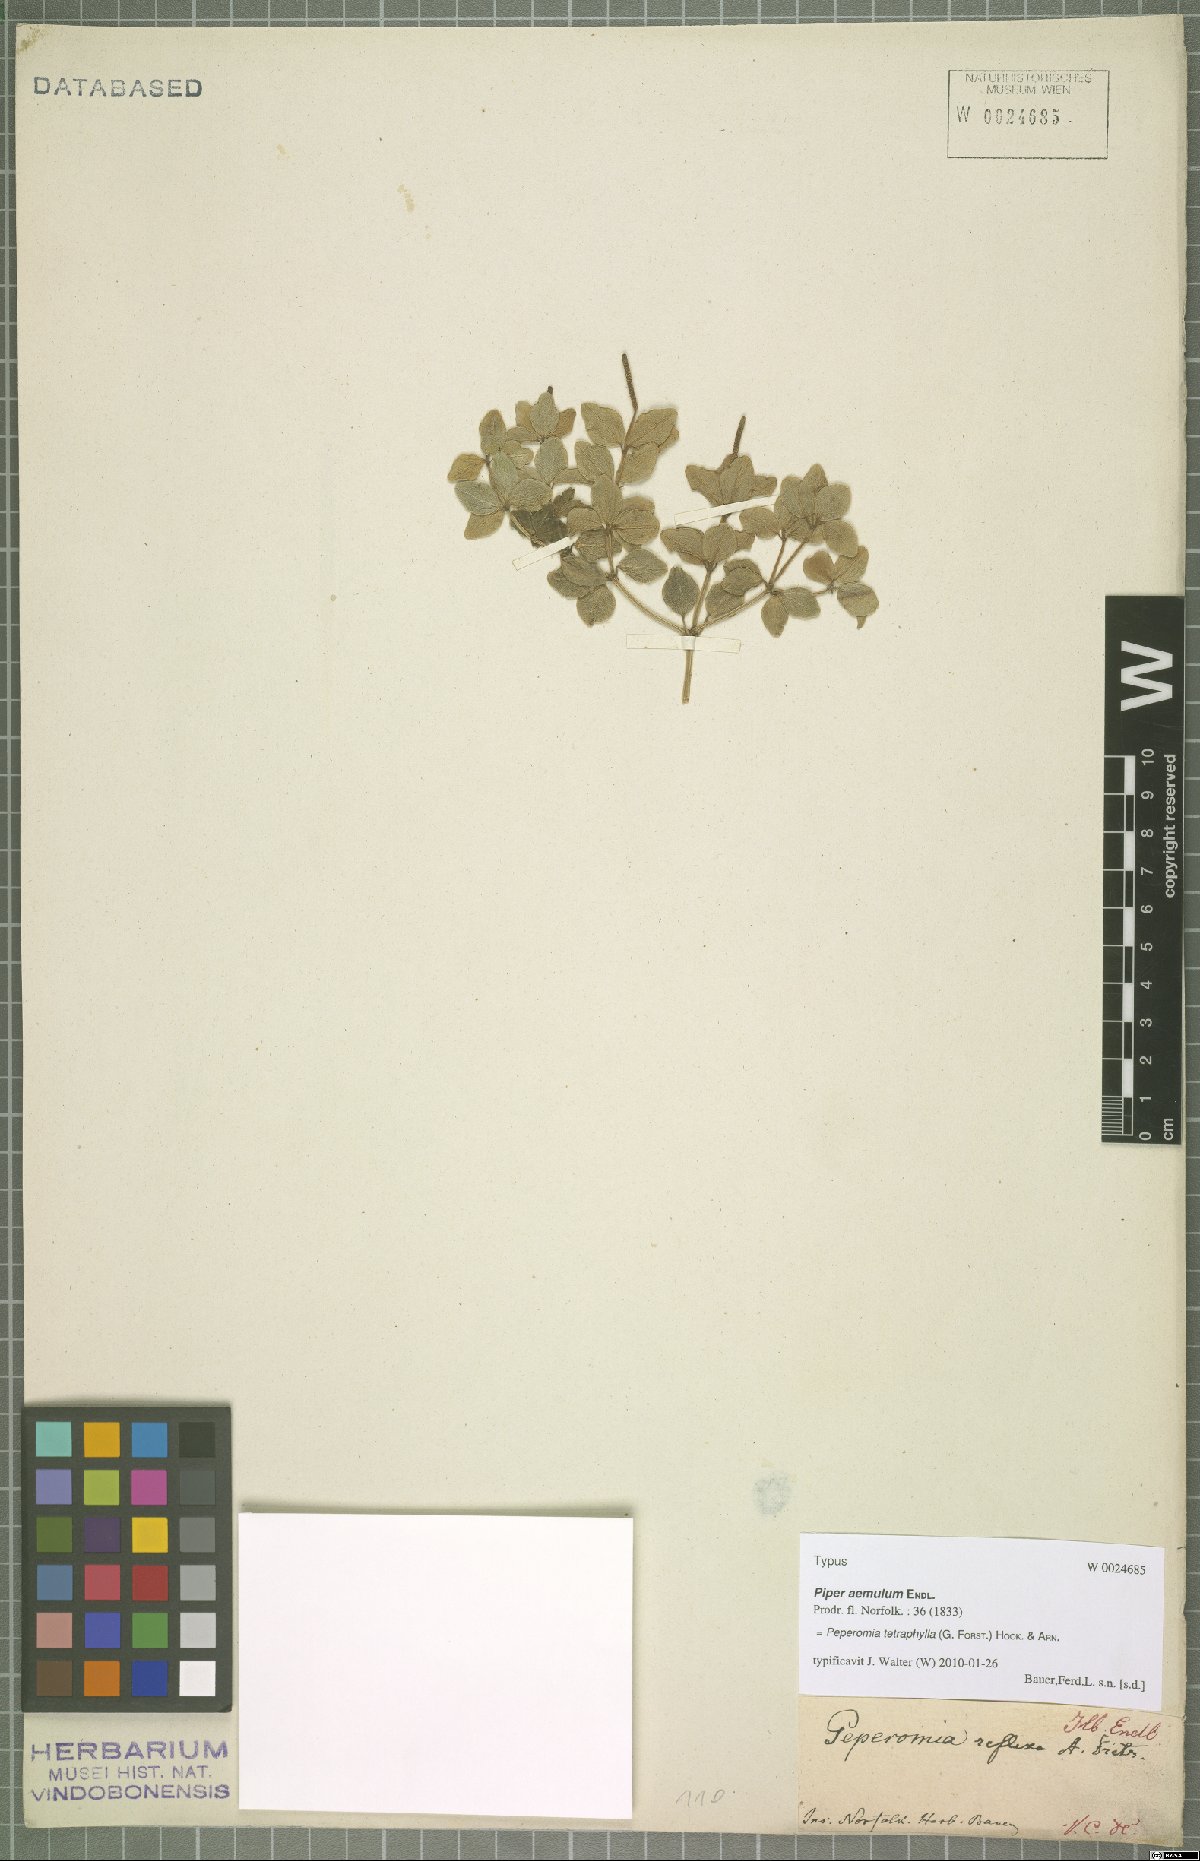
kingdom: Plantae
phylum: Tracheophyta
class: Magnoliopsida
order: Piperales
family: Piperaceae
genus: Peperomia
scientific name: Peperomia tetraphylla
